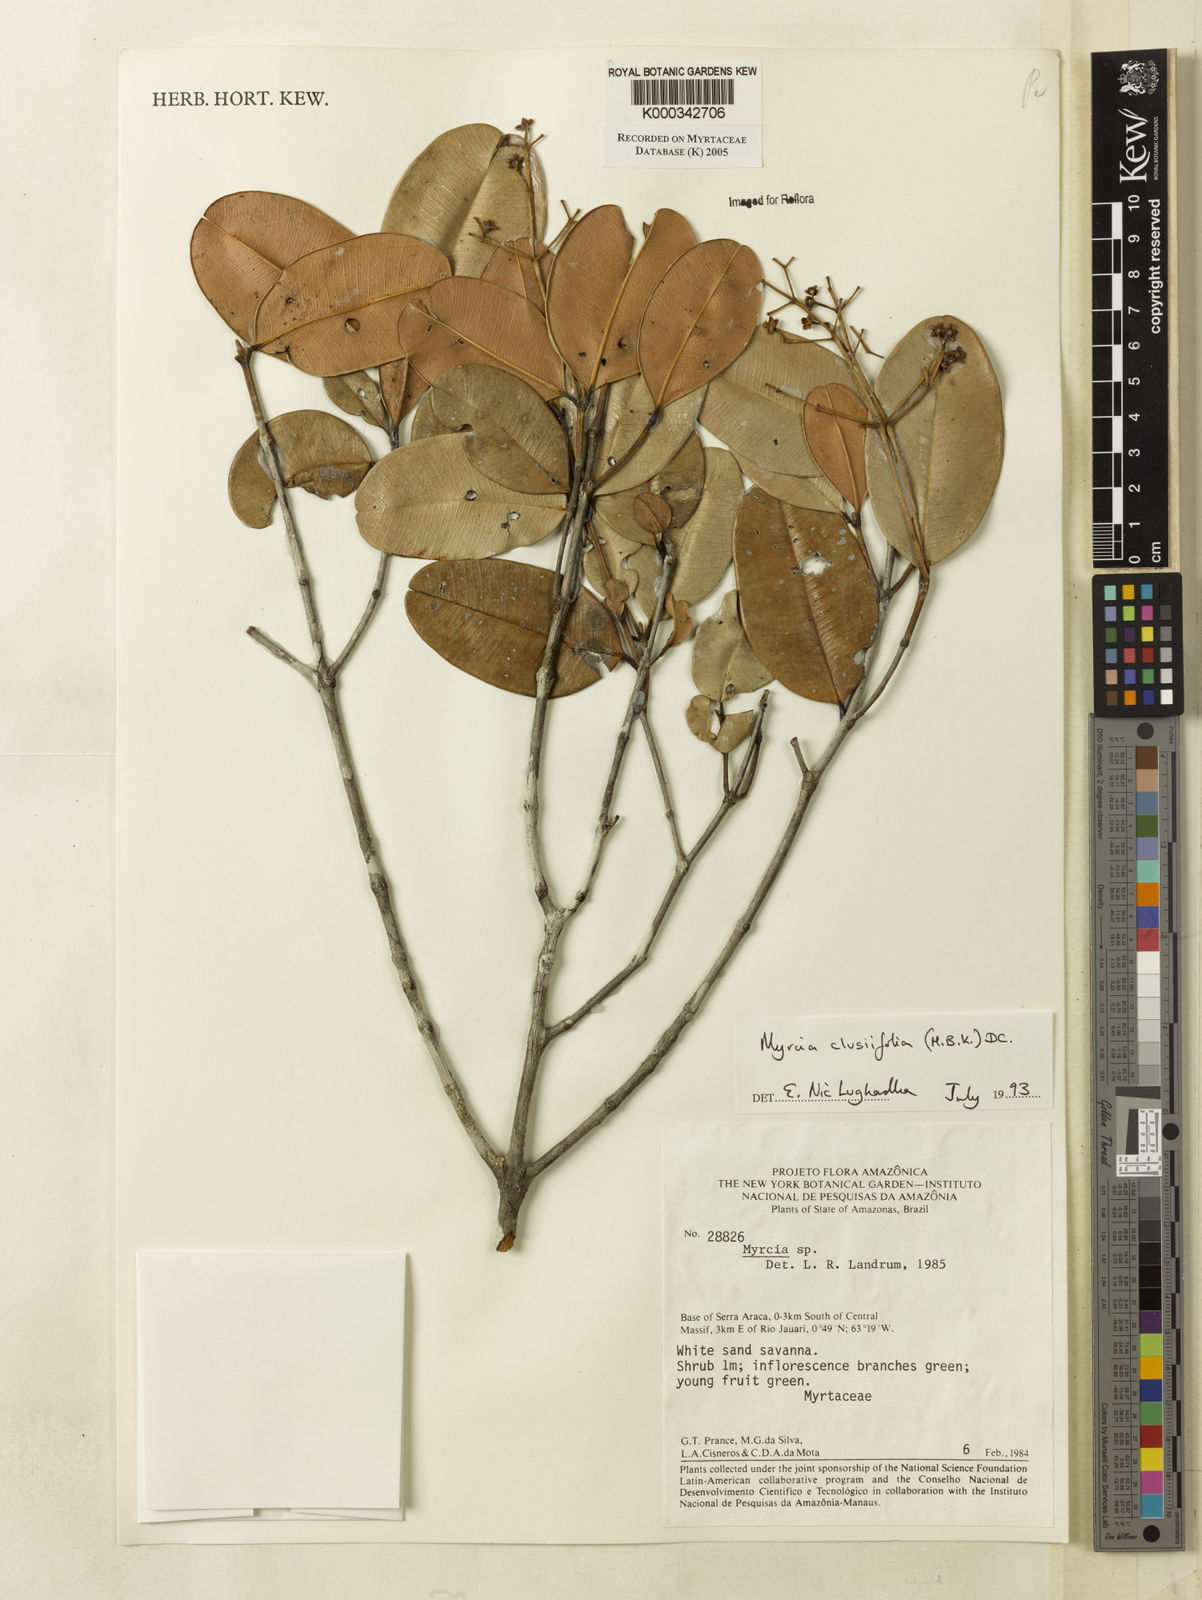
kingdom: Plantae
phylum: Tracheophyta
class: Magnoliopsida
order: Myrtales
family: Myrtaceae
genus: Myrcia
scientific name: Myrcia clusiifolia
